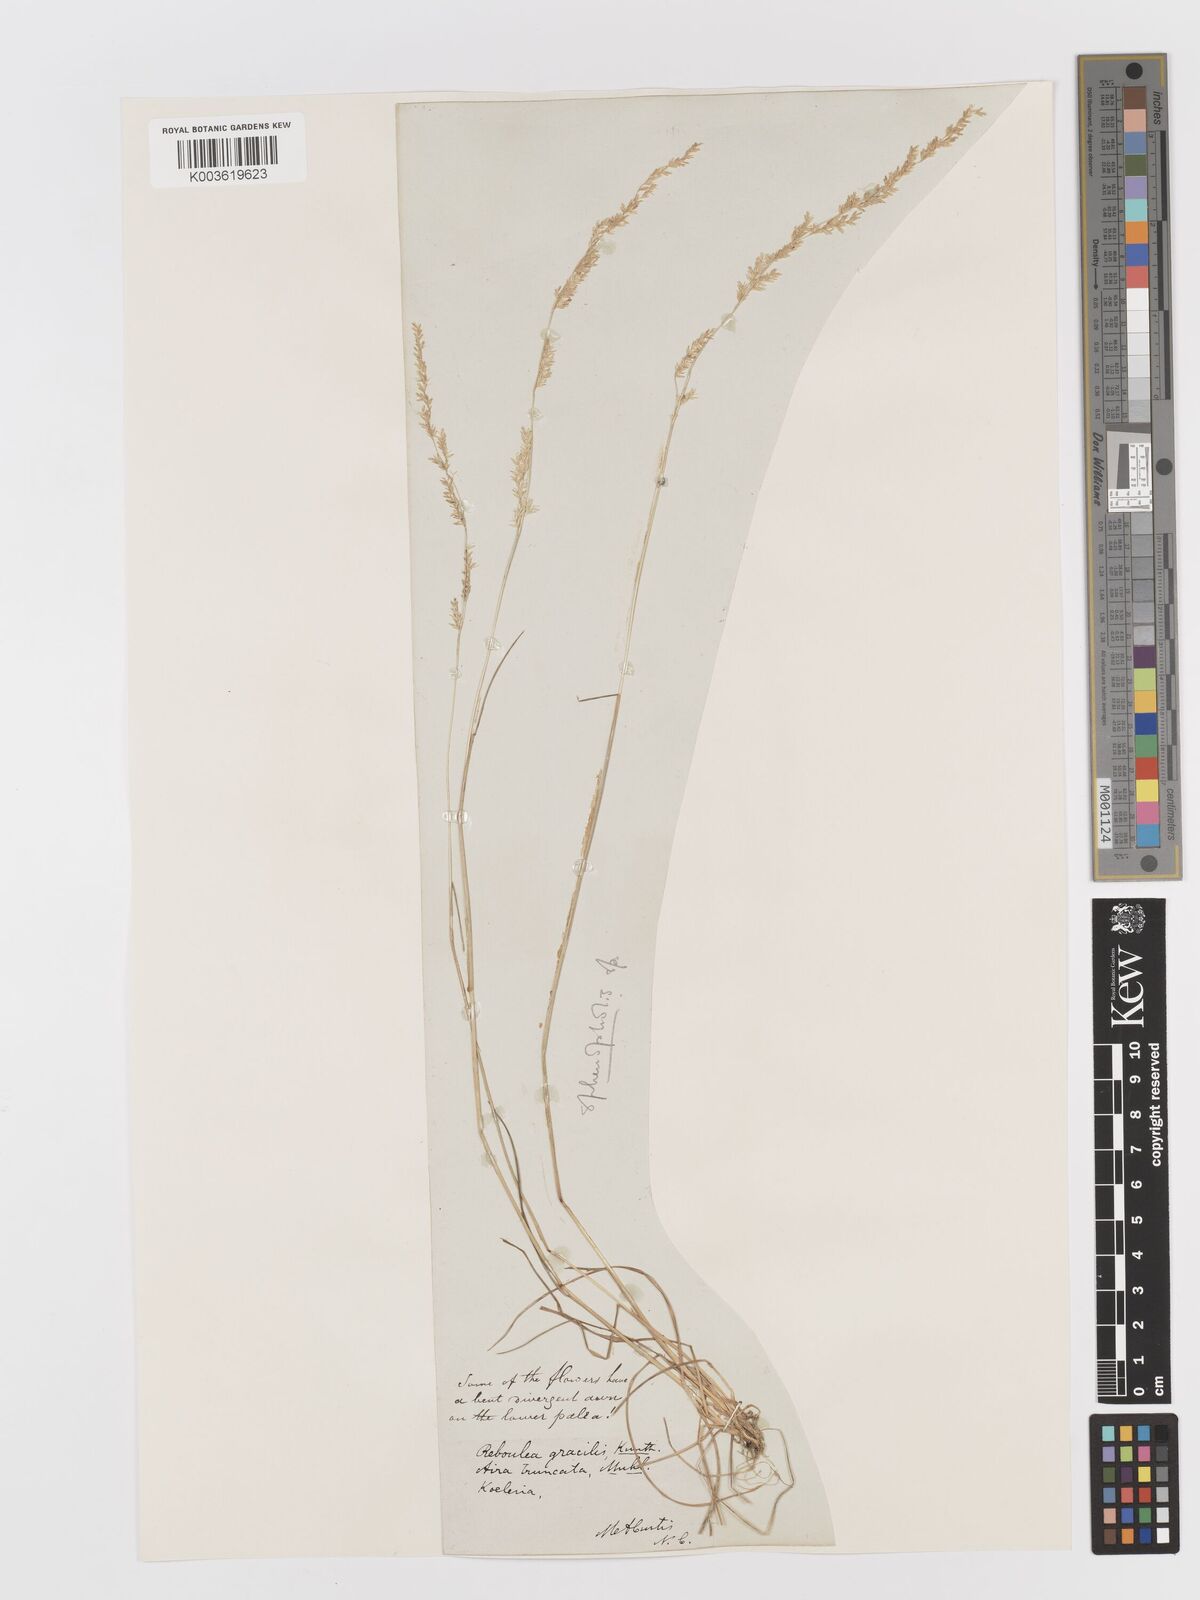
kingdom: Plantae
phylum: Tracheophyta
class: Liliopsida
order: Poales
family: Poaceae
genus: Sphenopholis
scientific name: Sphenopholis obtusata
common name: Prairie grass
